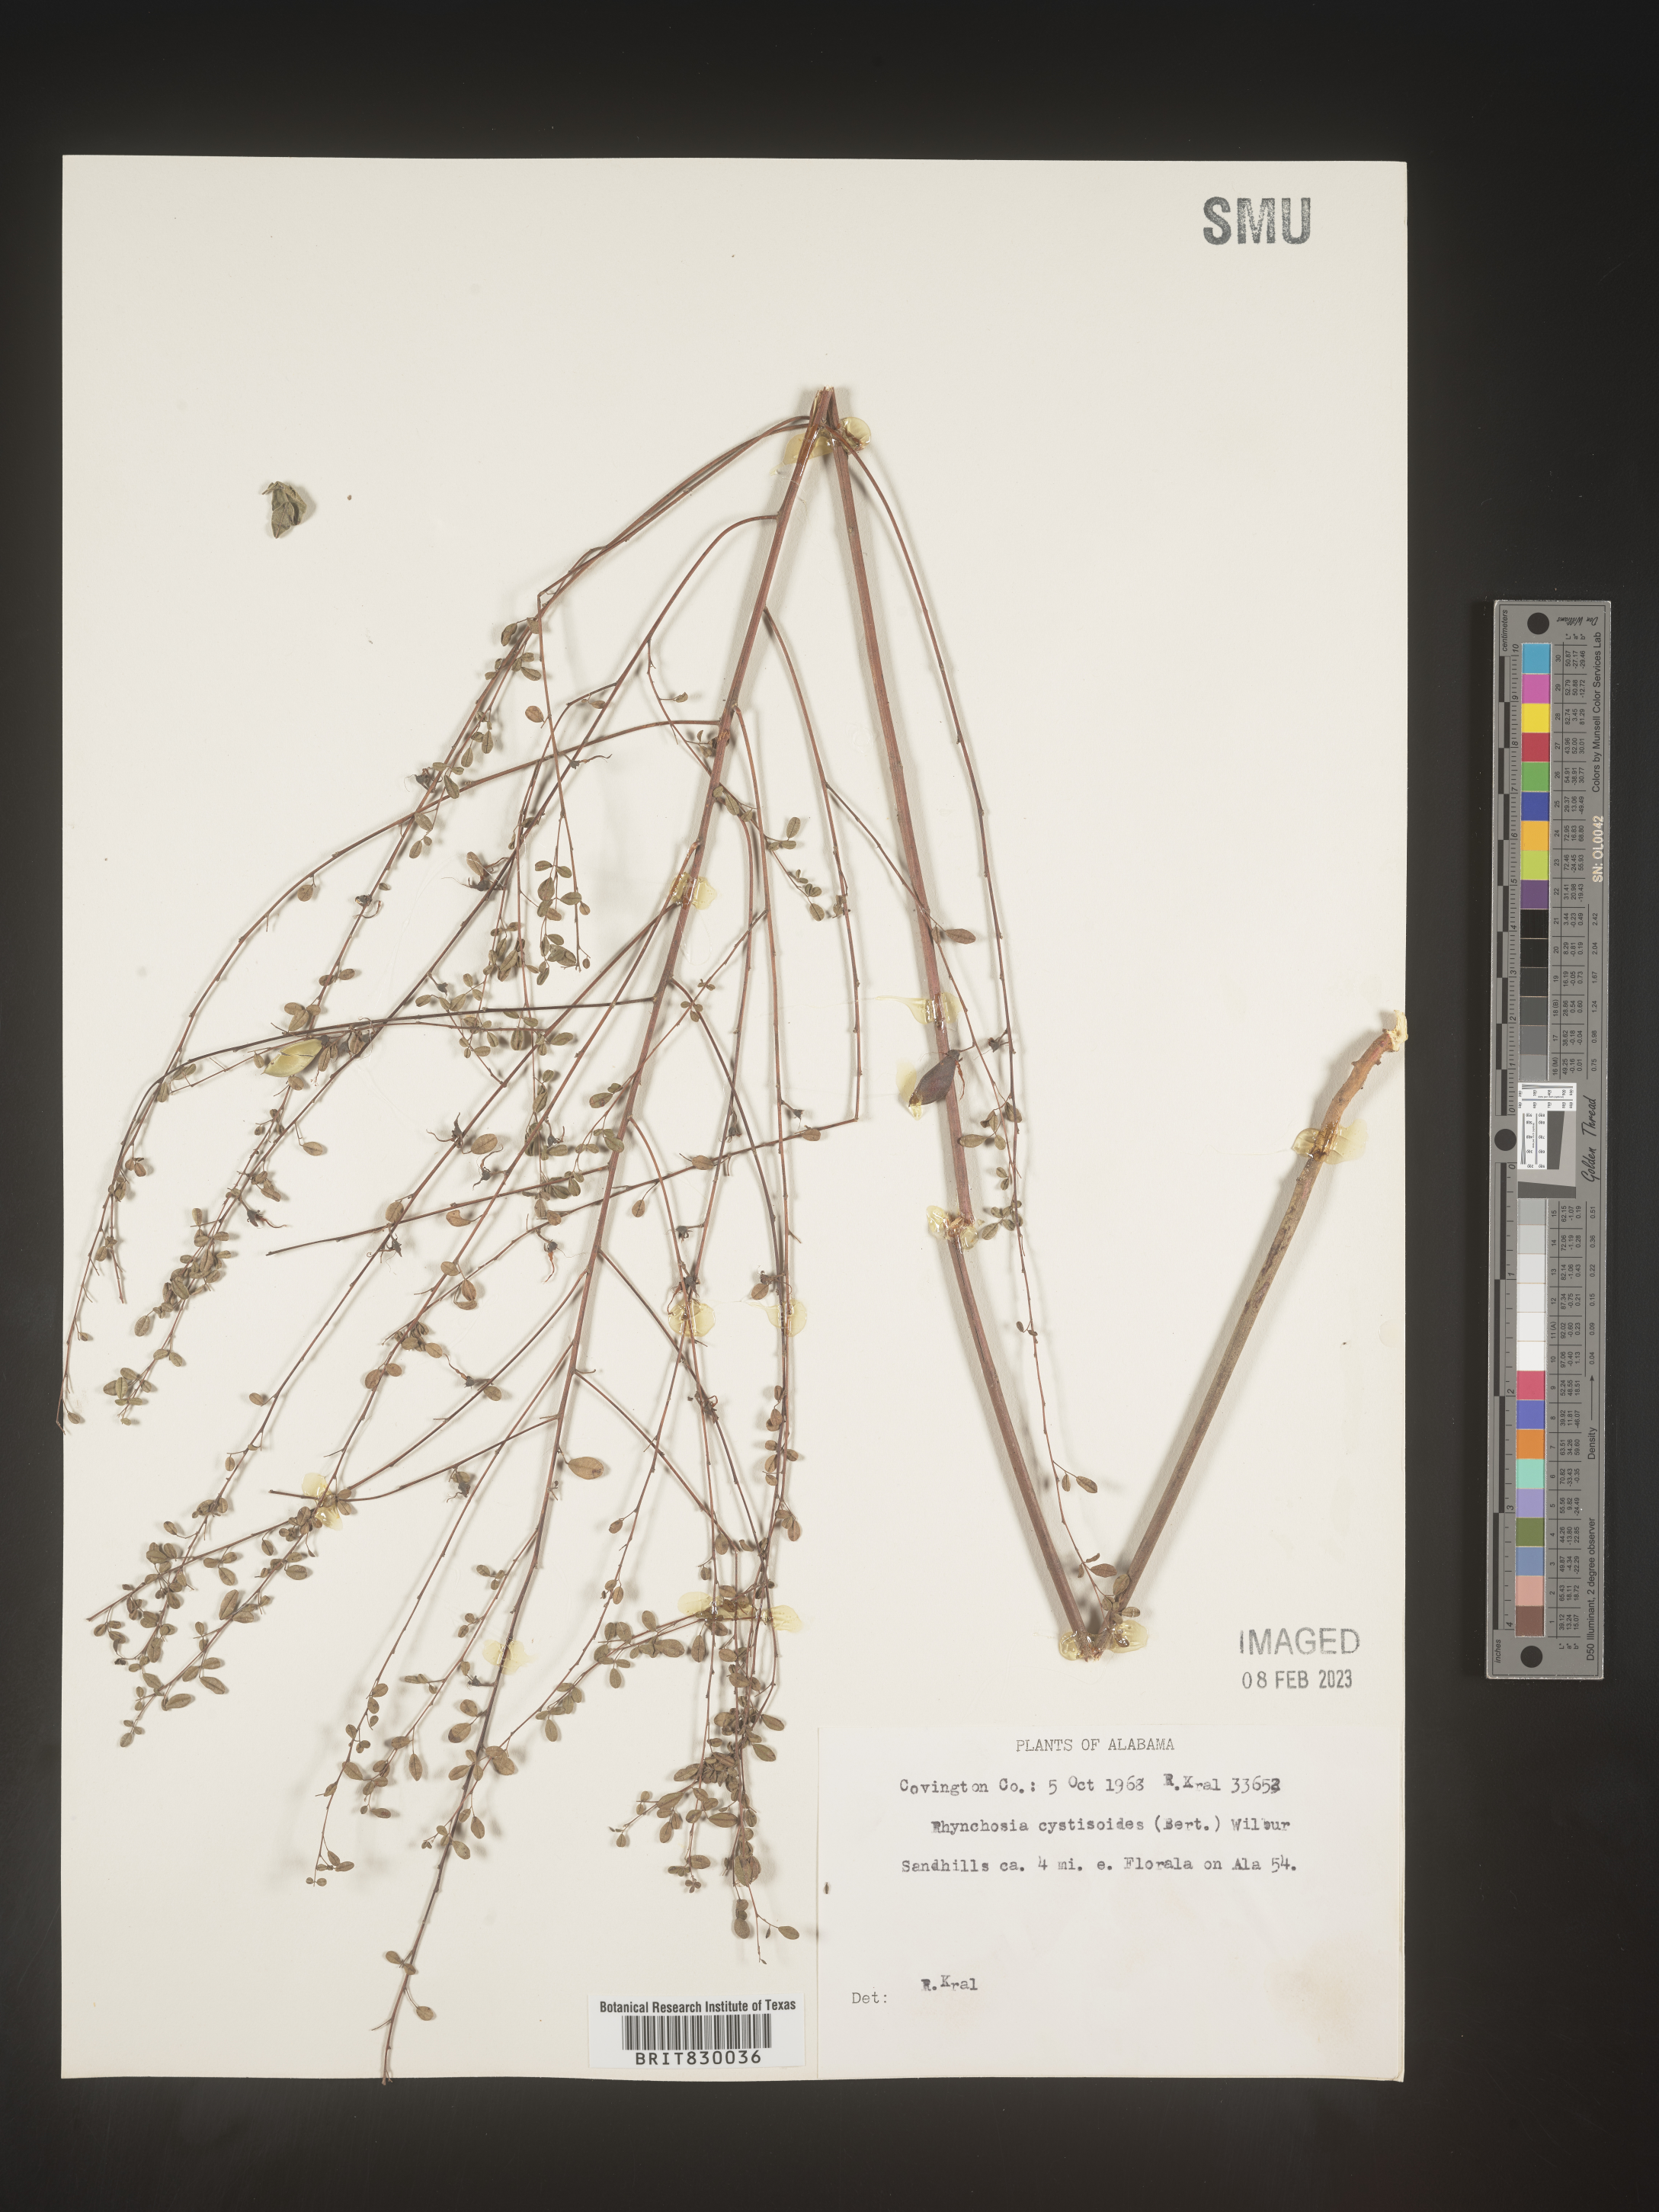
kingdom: Plantae
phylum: Tracheophyta
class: Magnoliopsida
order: Fabales
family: Fabaceae
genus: Rhynchosia
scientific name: Rhynchosia
